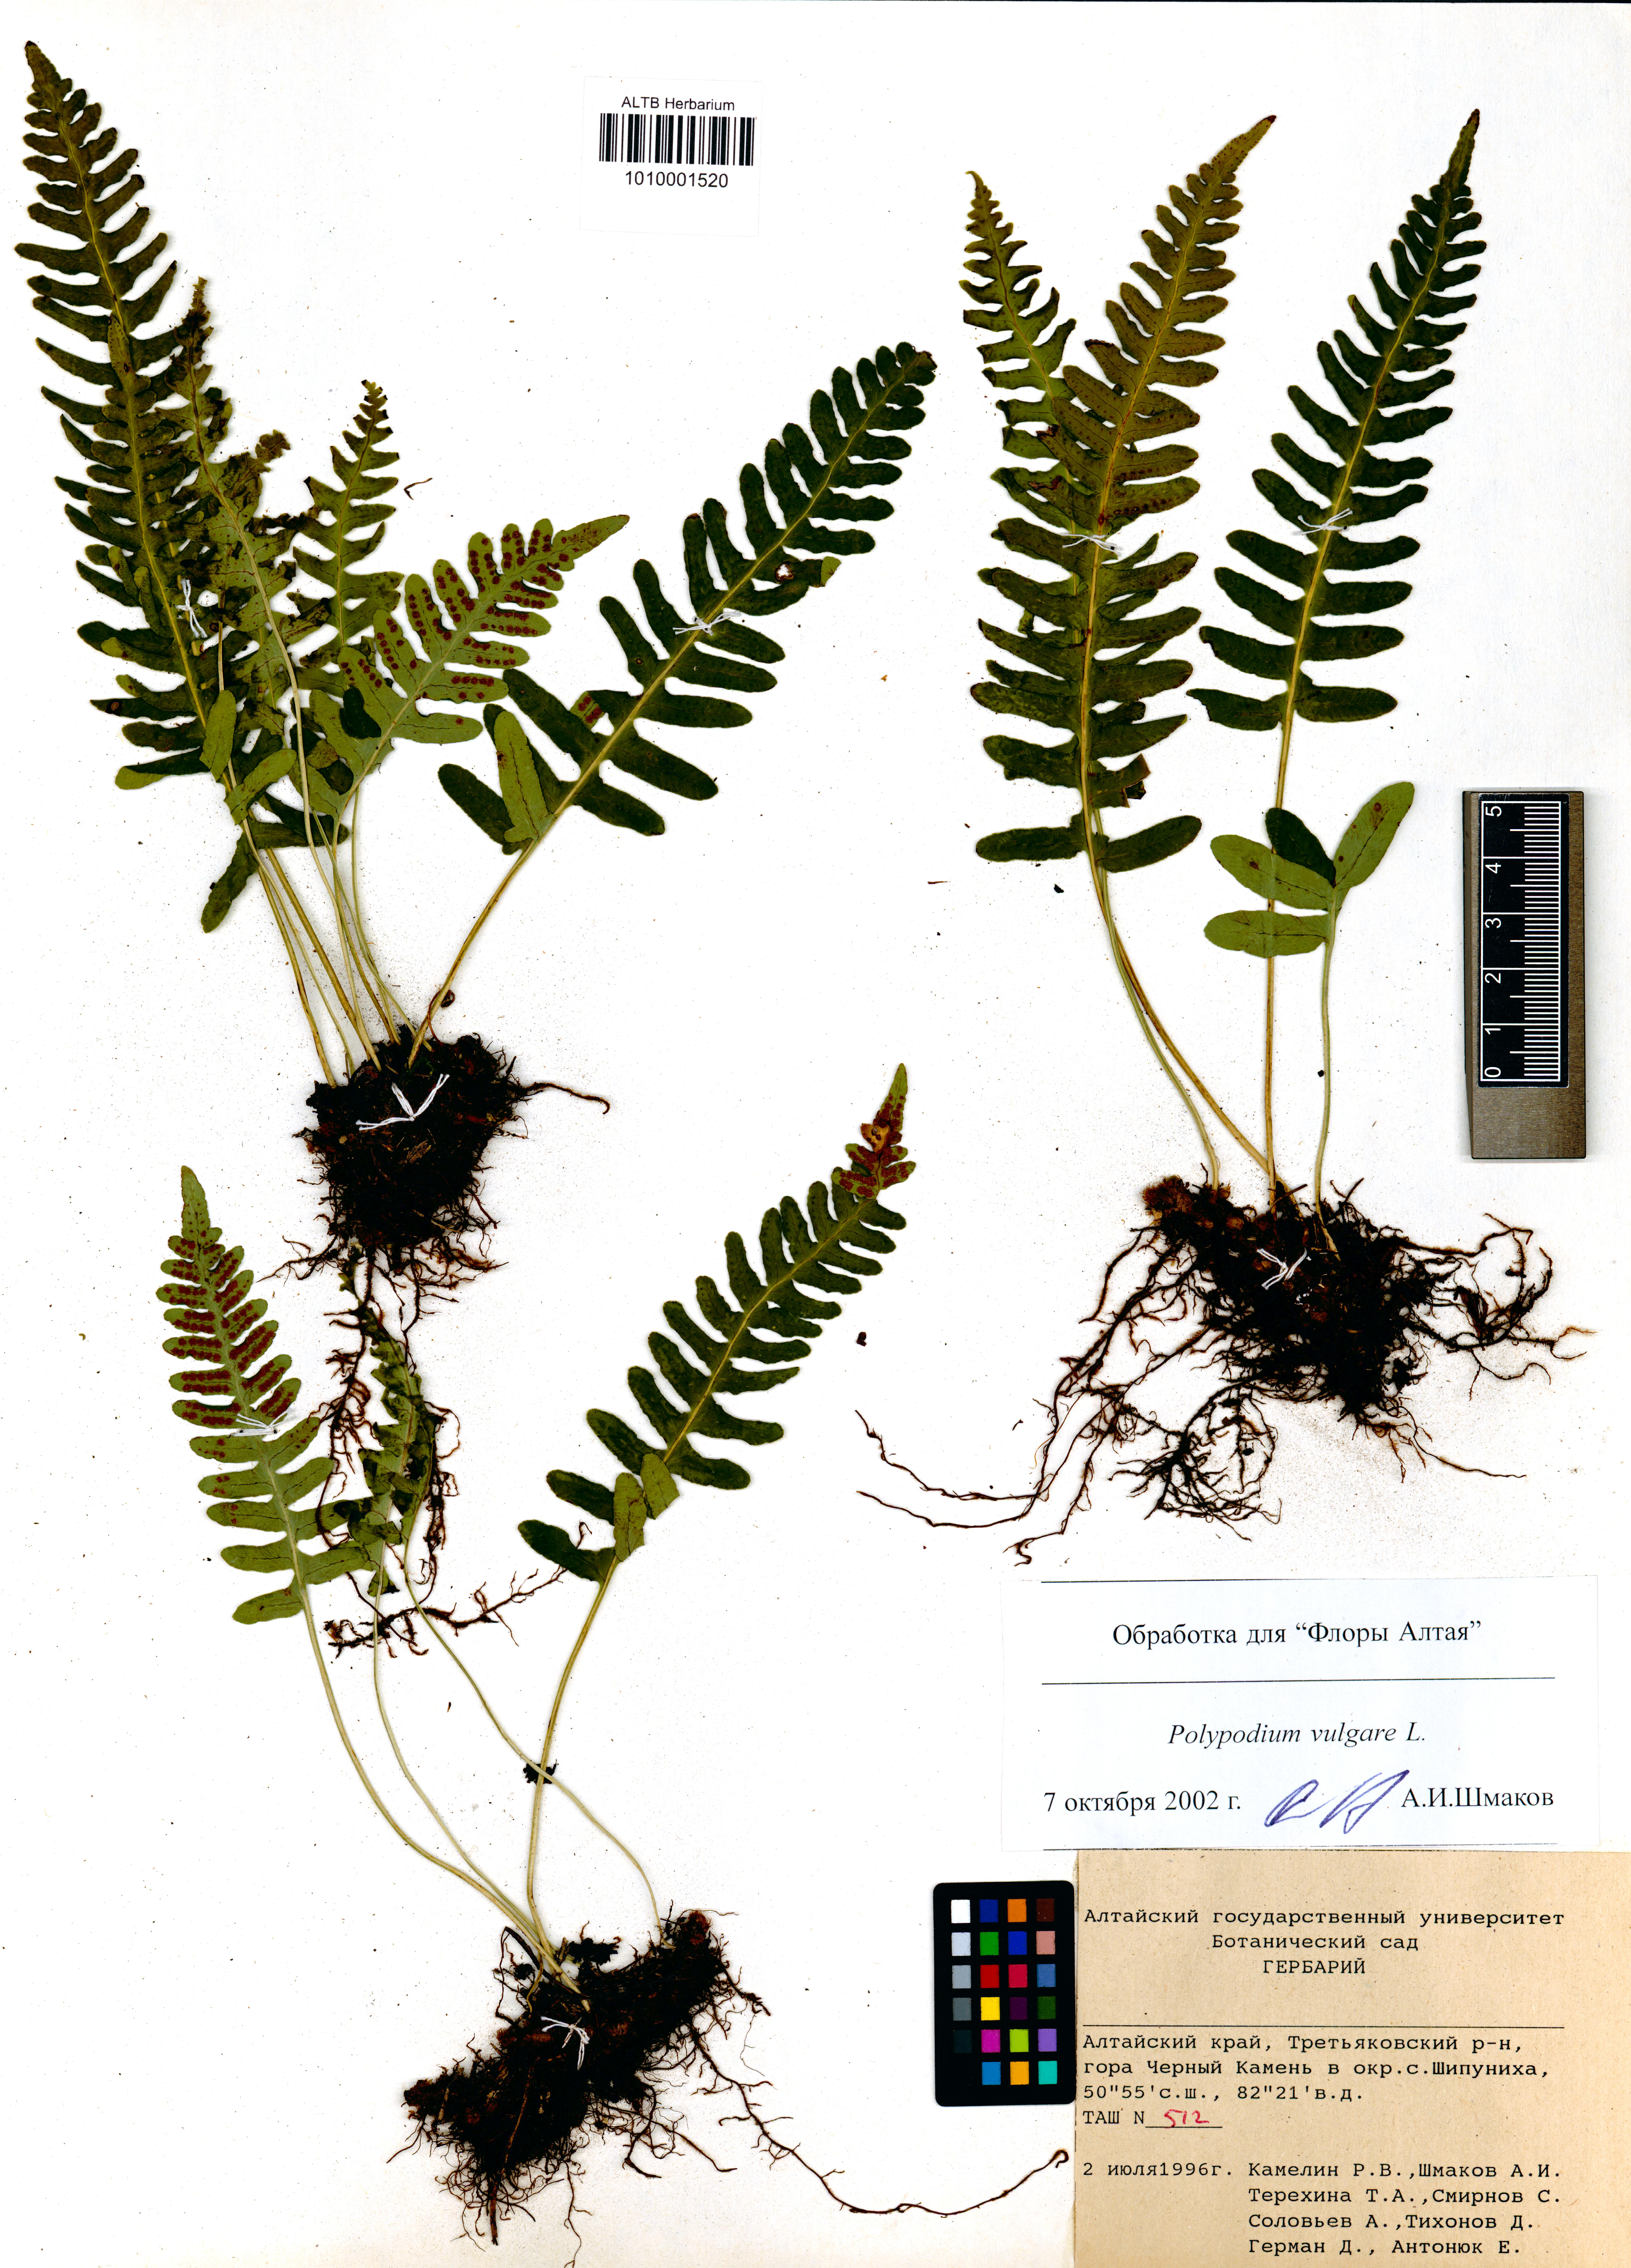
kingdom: Plantae
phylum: Tracheophyta
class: Polypodiopsida
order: Polypodiales
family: Polypodiaceae
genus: Polypodium
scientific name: Polypodium vulgare
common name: Common polypody
